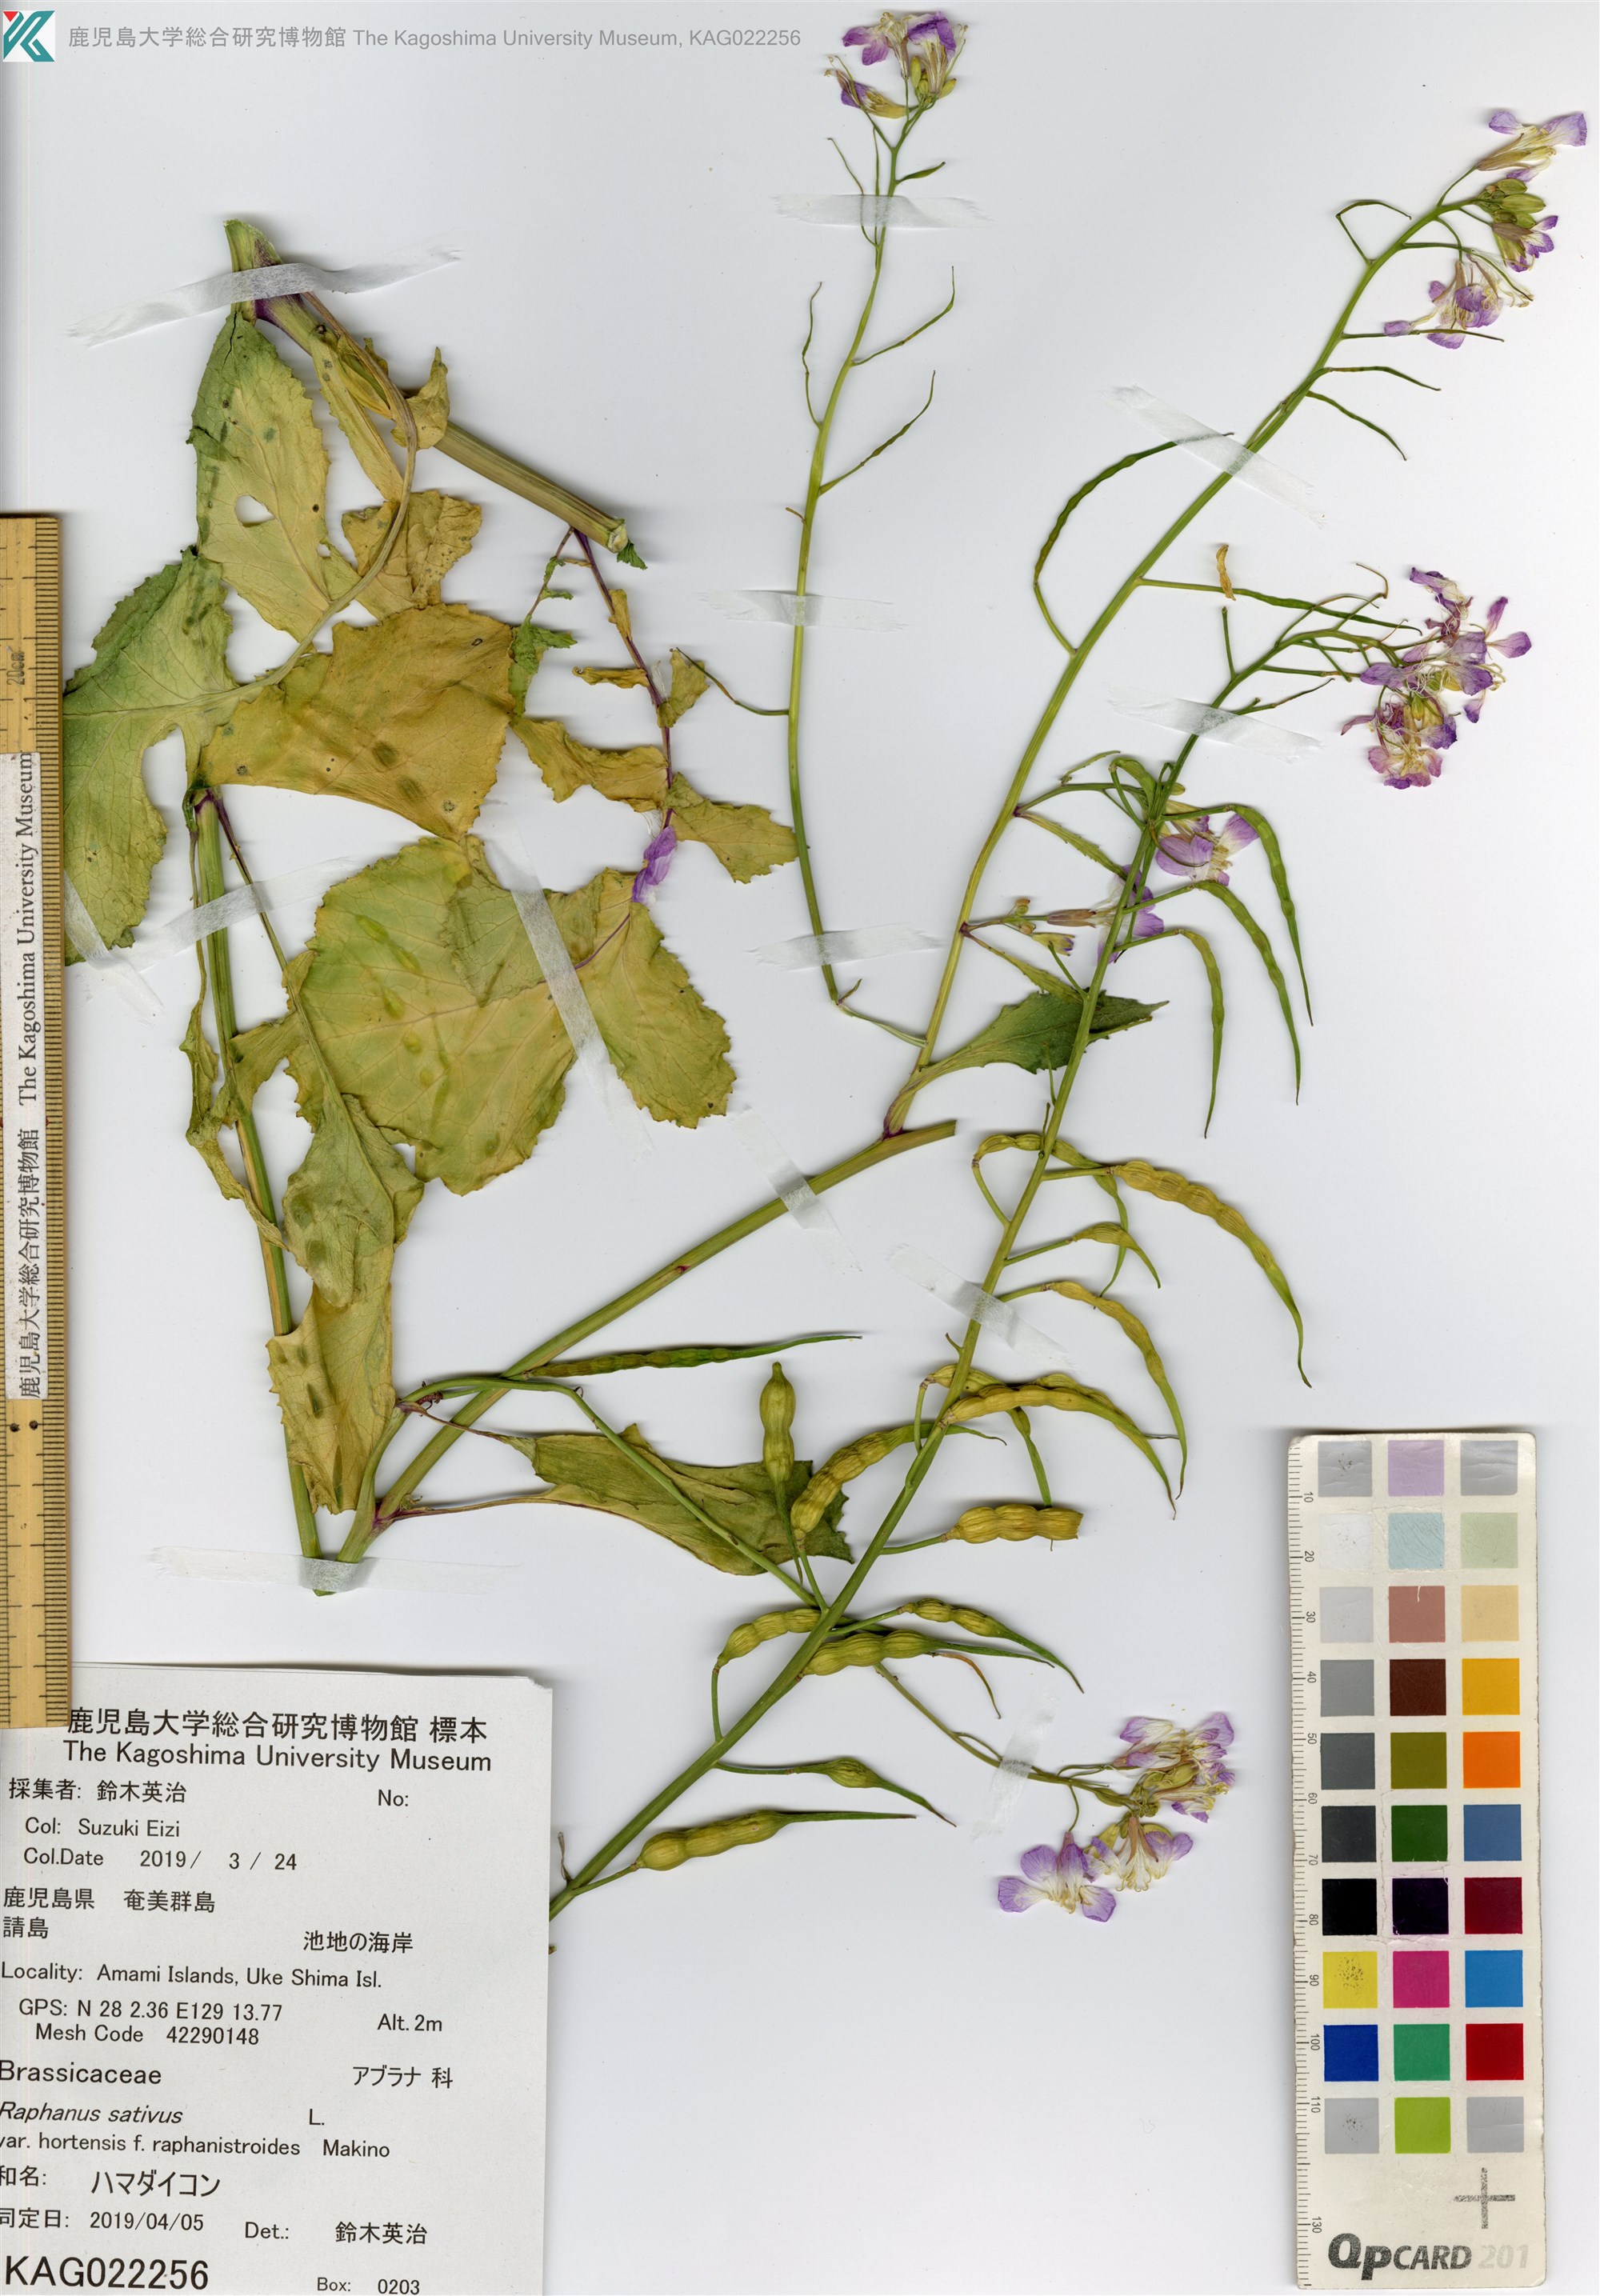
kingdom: Plantae
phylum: Tracheophyta
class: Magnoliopsida
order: Brassicales
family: Brassicaceae
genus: Raphanus
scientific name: Raphanus sativus
